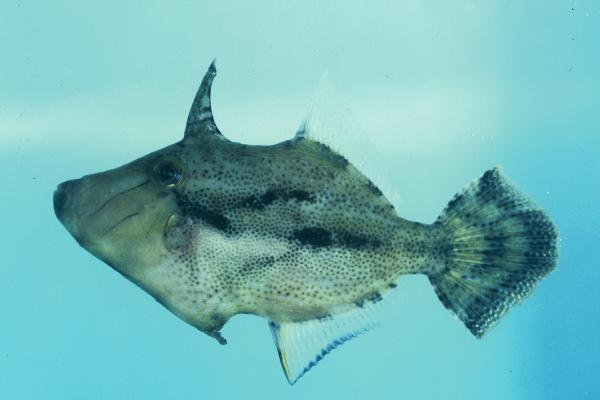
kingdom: Animalia
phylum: Chordata
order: Tetraodontiformes
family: Monacanthidae
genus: Paramonacanthus
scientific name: Paramonacanthus frenatus
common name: Wedgetail filefish
